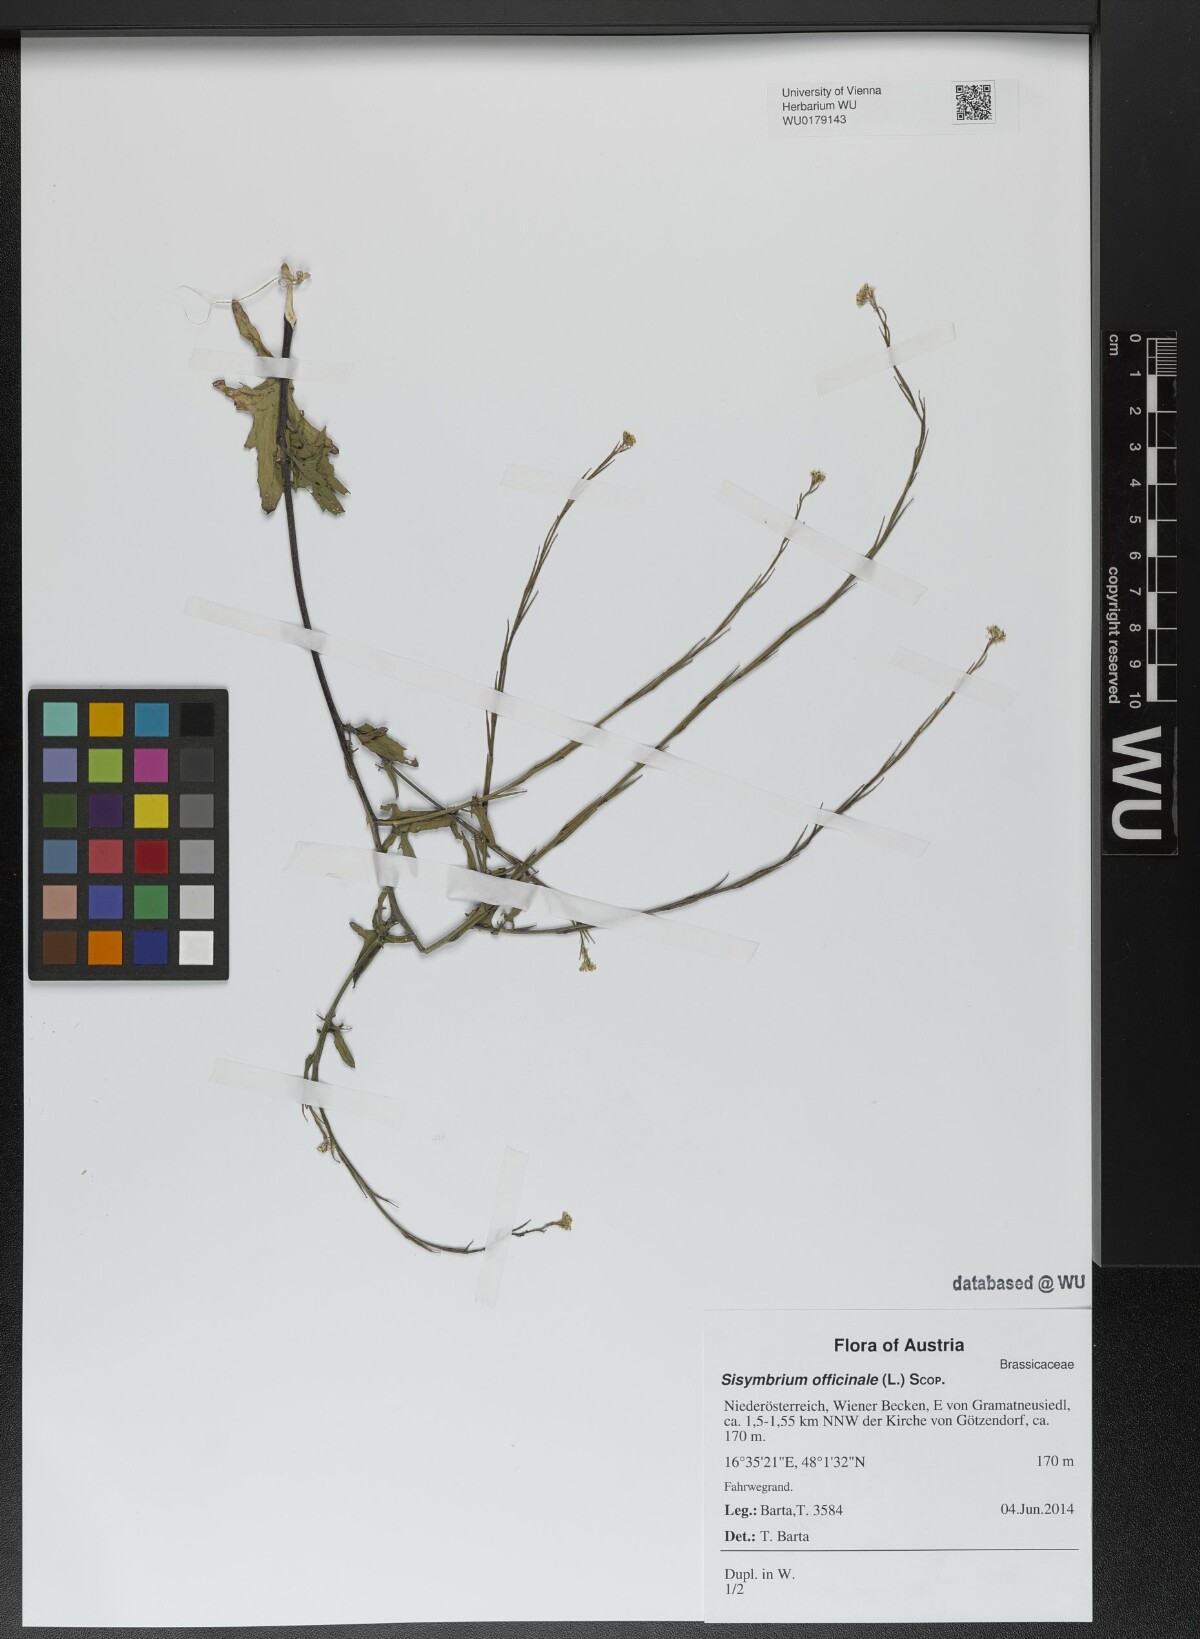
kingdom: Plantae
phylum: Tracheophyta
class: Magnoliopsida
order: Brassicales
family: Brassicaceae
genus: Sisymbrium
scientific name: Sisymbrium officinale
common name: Hedge mustard
